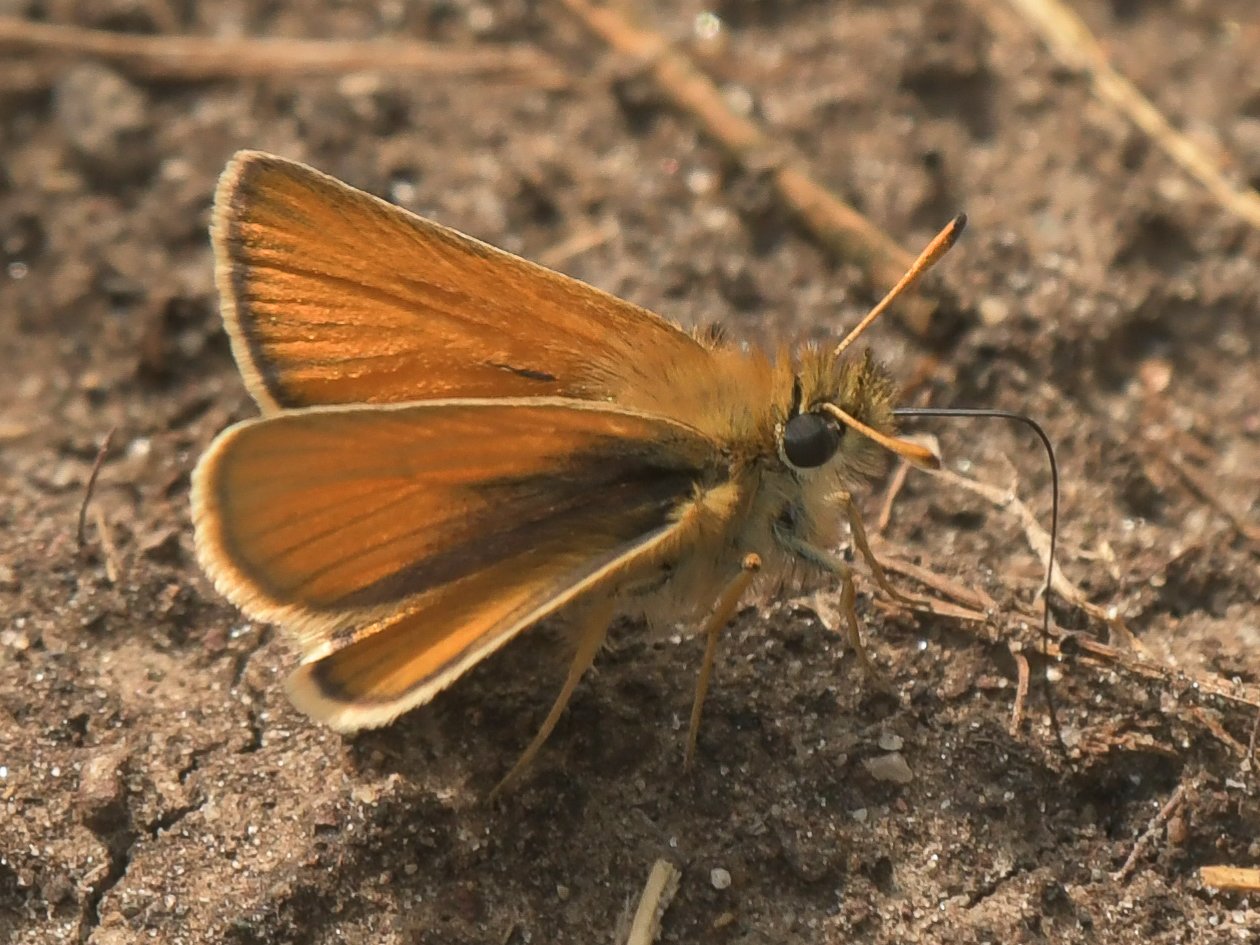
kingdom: Animalia
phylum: Arthropoda
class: Insecta
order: Lepidoptera
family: Hesperiidae
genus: Hesperia
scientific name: Hesperia comma
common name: Western Branded Skipper
